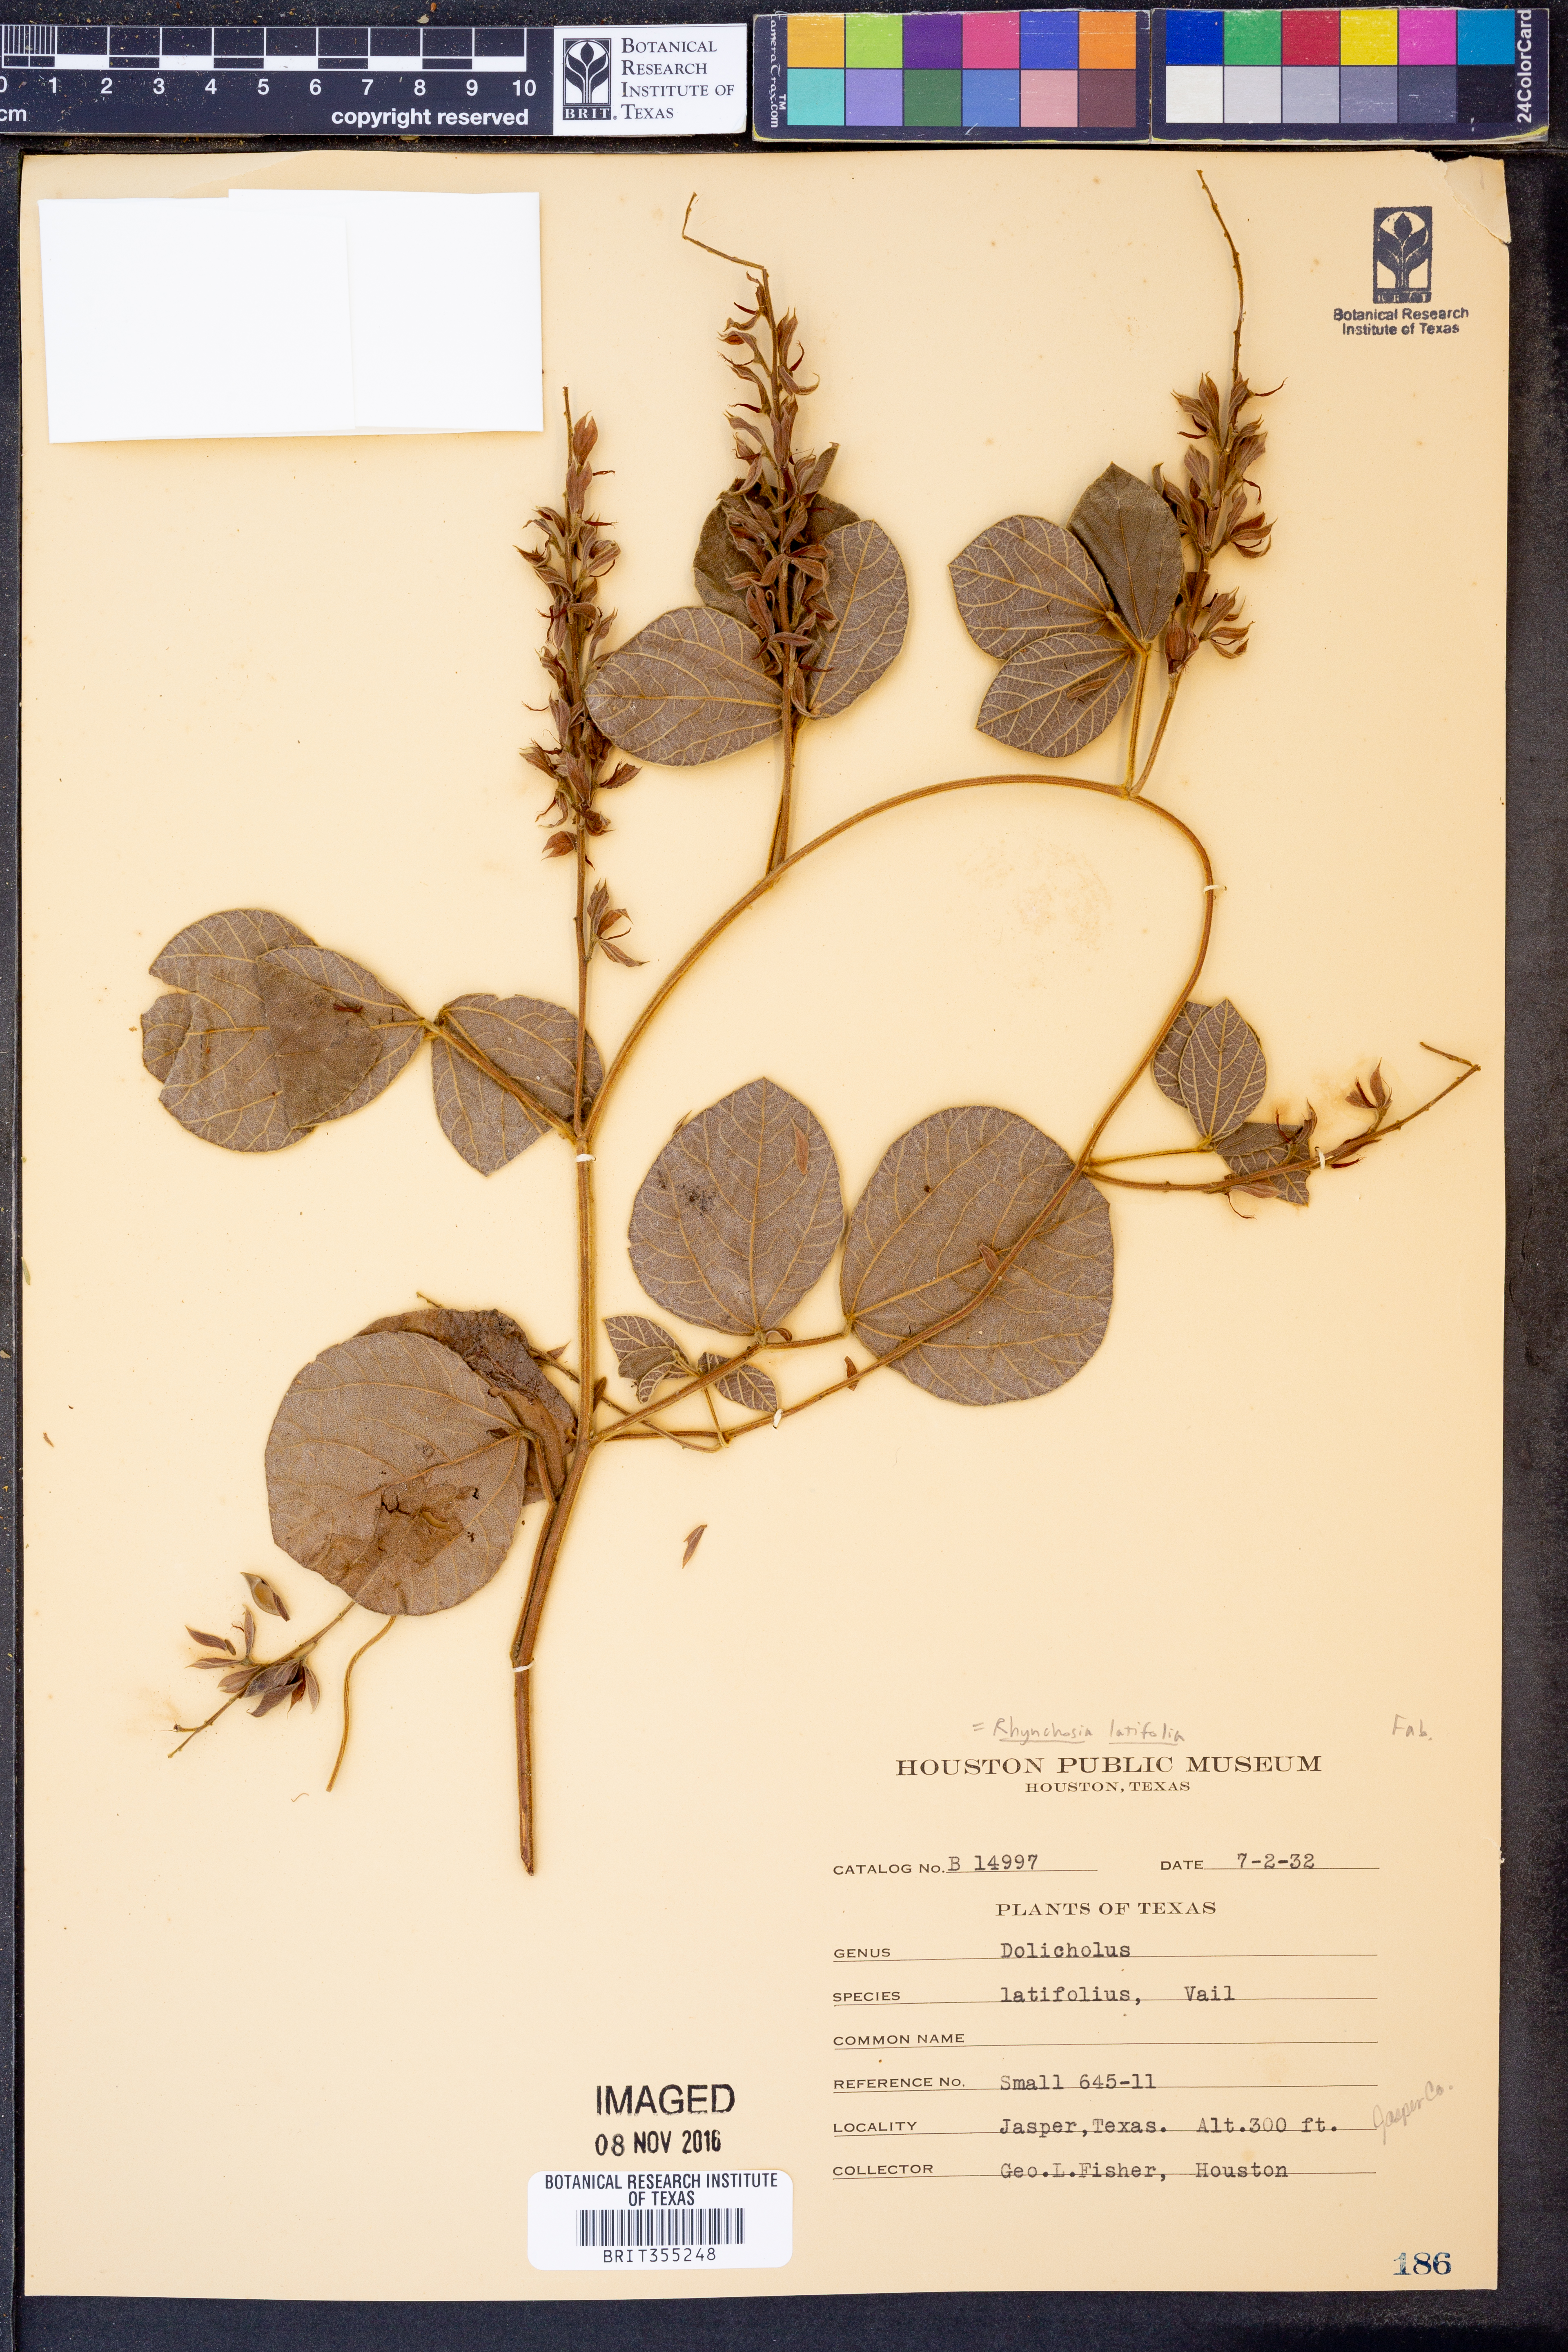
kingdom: Plantae
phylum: Tracheophyta
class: Magnoliopsida
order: Fabales
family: Fabaceae
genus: Rhynchosia
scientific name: Rhynchosia latifolia
